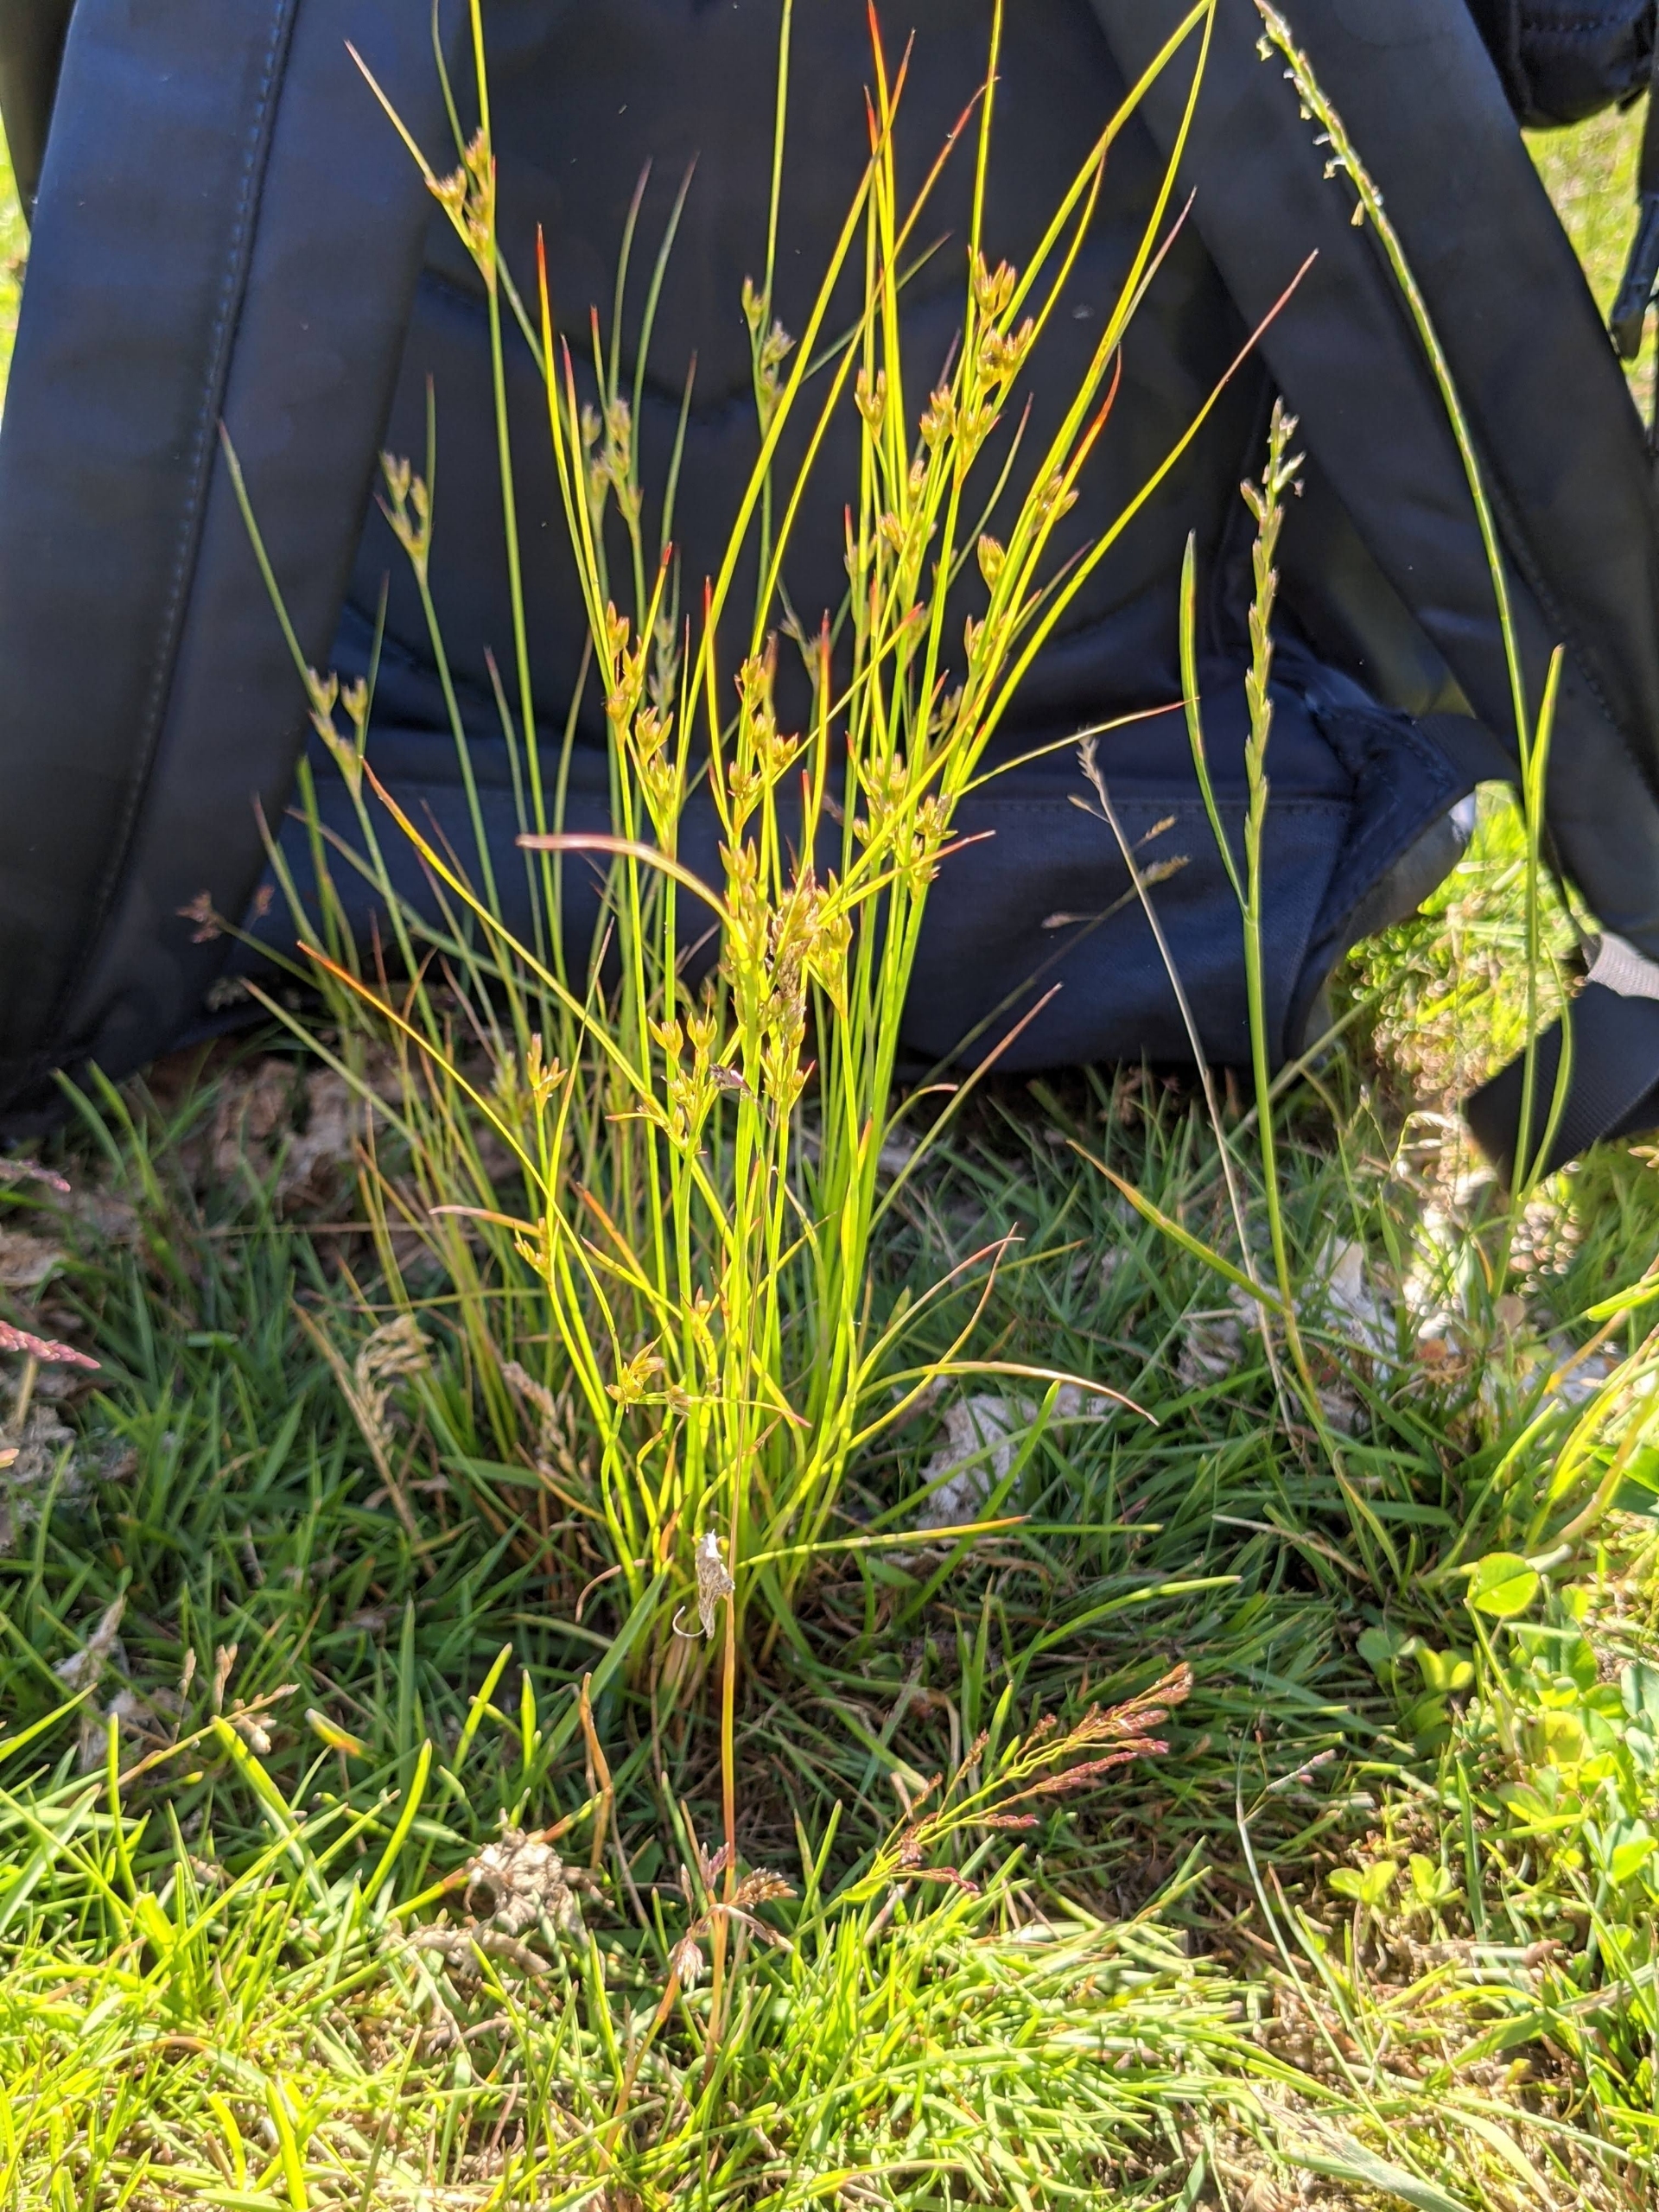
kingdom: Plantae
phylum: Tracheophyta
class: Liliopsida
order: Poales
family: Juncaceae
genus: Juncus
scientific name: Juncus tenuis
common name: Tue-siv
